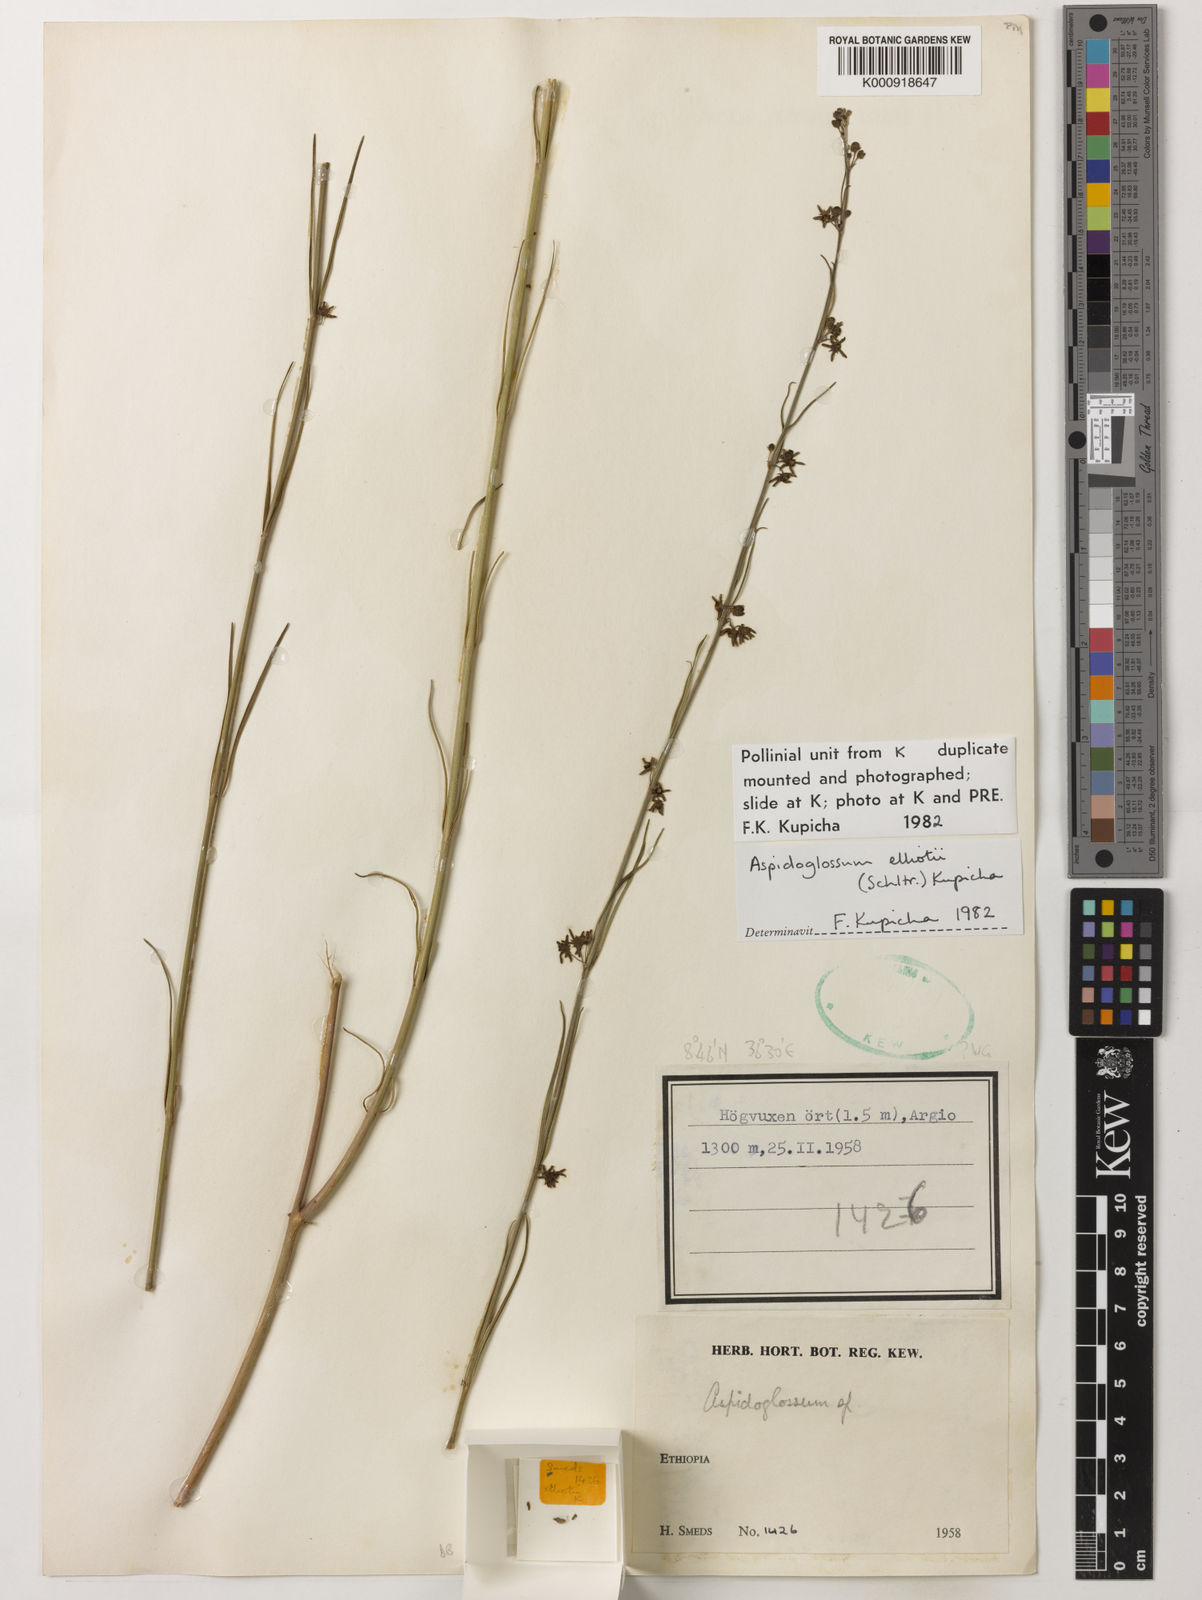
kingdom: Plantae
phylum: Tracheophyta
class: Magnoliopsida
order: Gentianales
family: Apocynaceae
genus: Aspidoglossum
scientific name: Aspidoglossum elliotii
